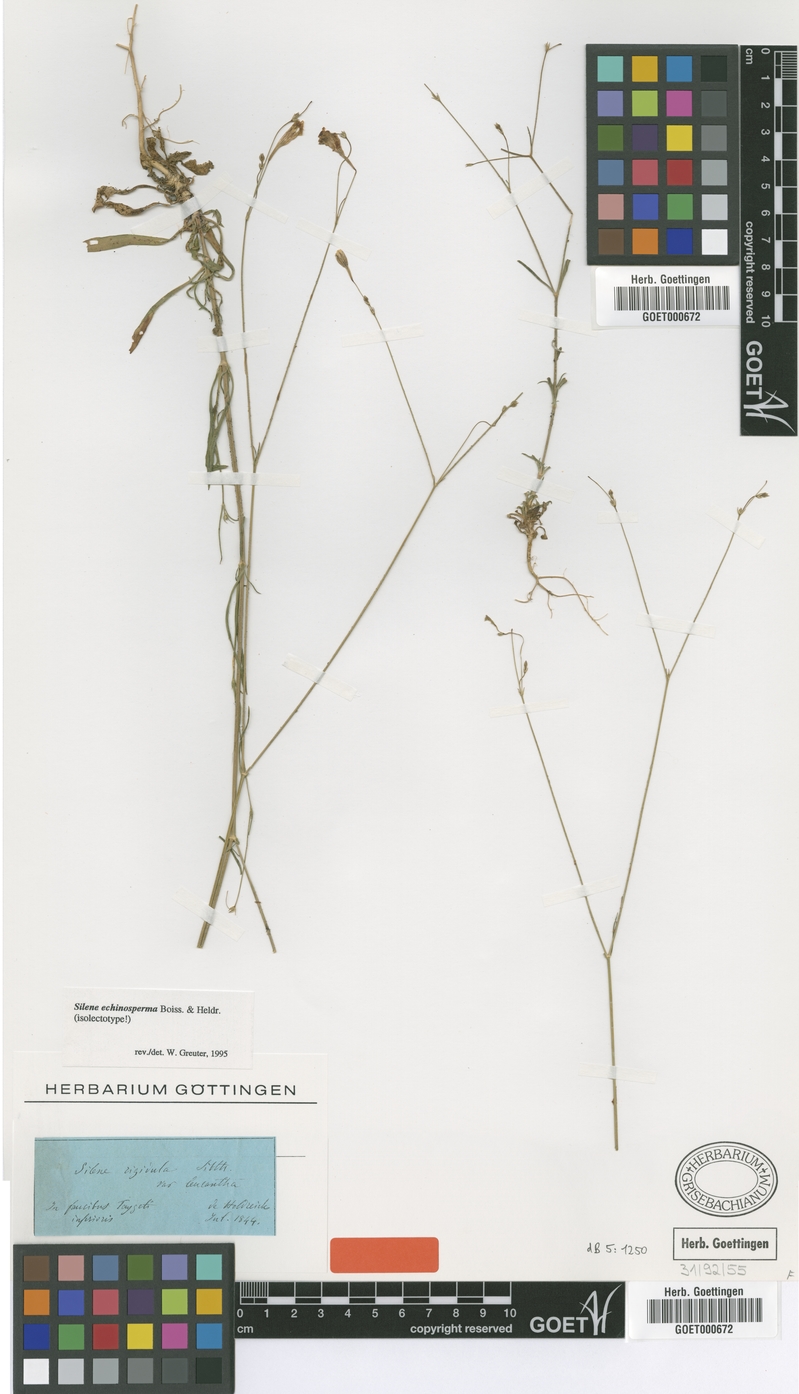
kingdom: Plantae
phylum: Tracheophyta
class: Magnoliopsida
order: Caryophyllales
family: Caryophyllaceae
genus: Silene
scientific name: Silene echinosperma
